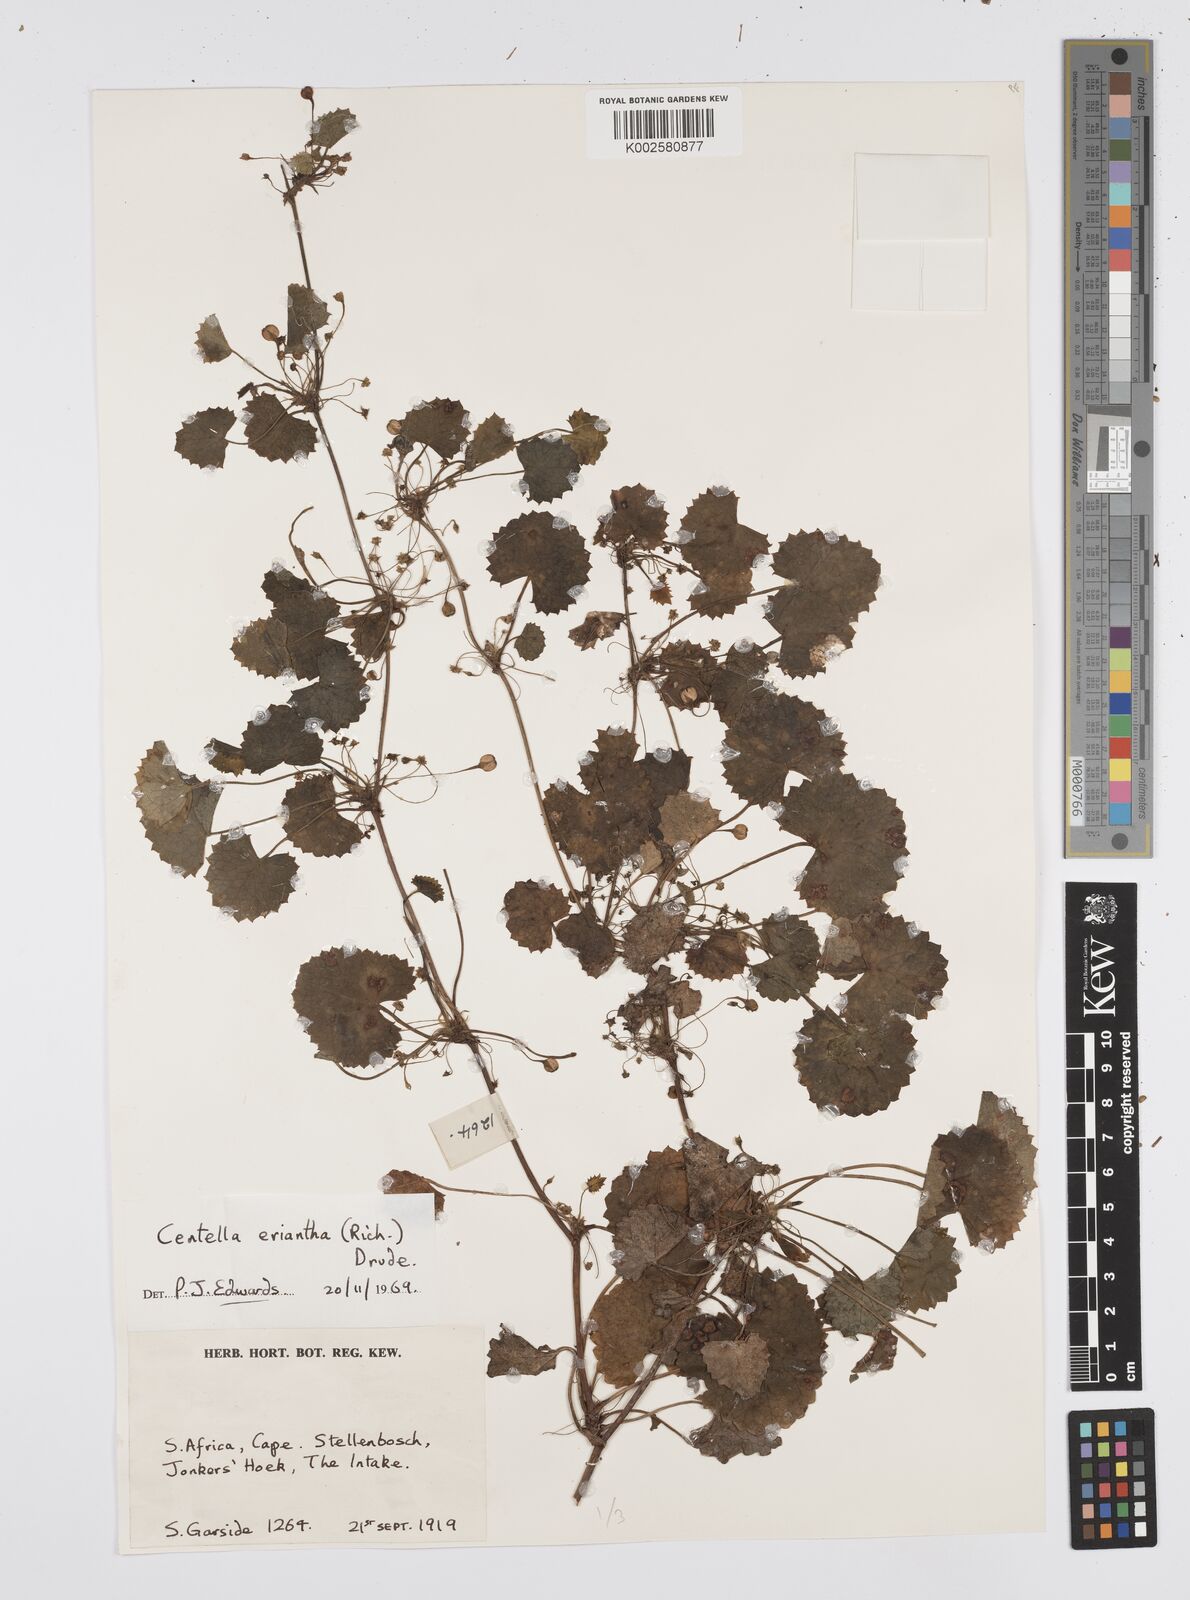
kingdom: Plantae
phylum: Tracheophyta
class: Magnoliopsida
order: Apiales
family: Apiaceae
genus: Centella
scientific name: Centella eriantha
